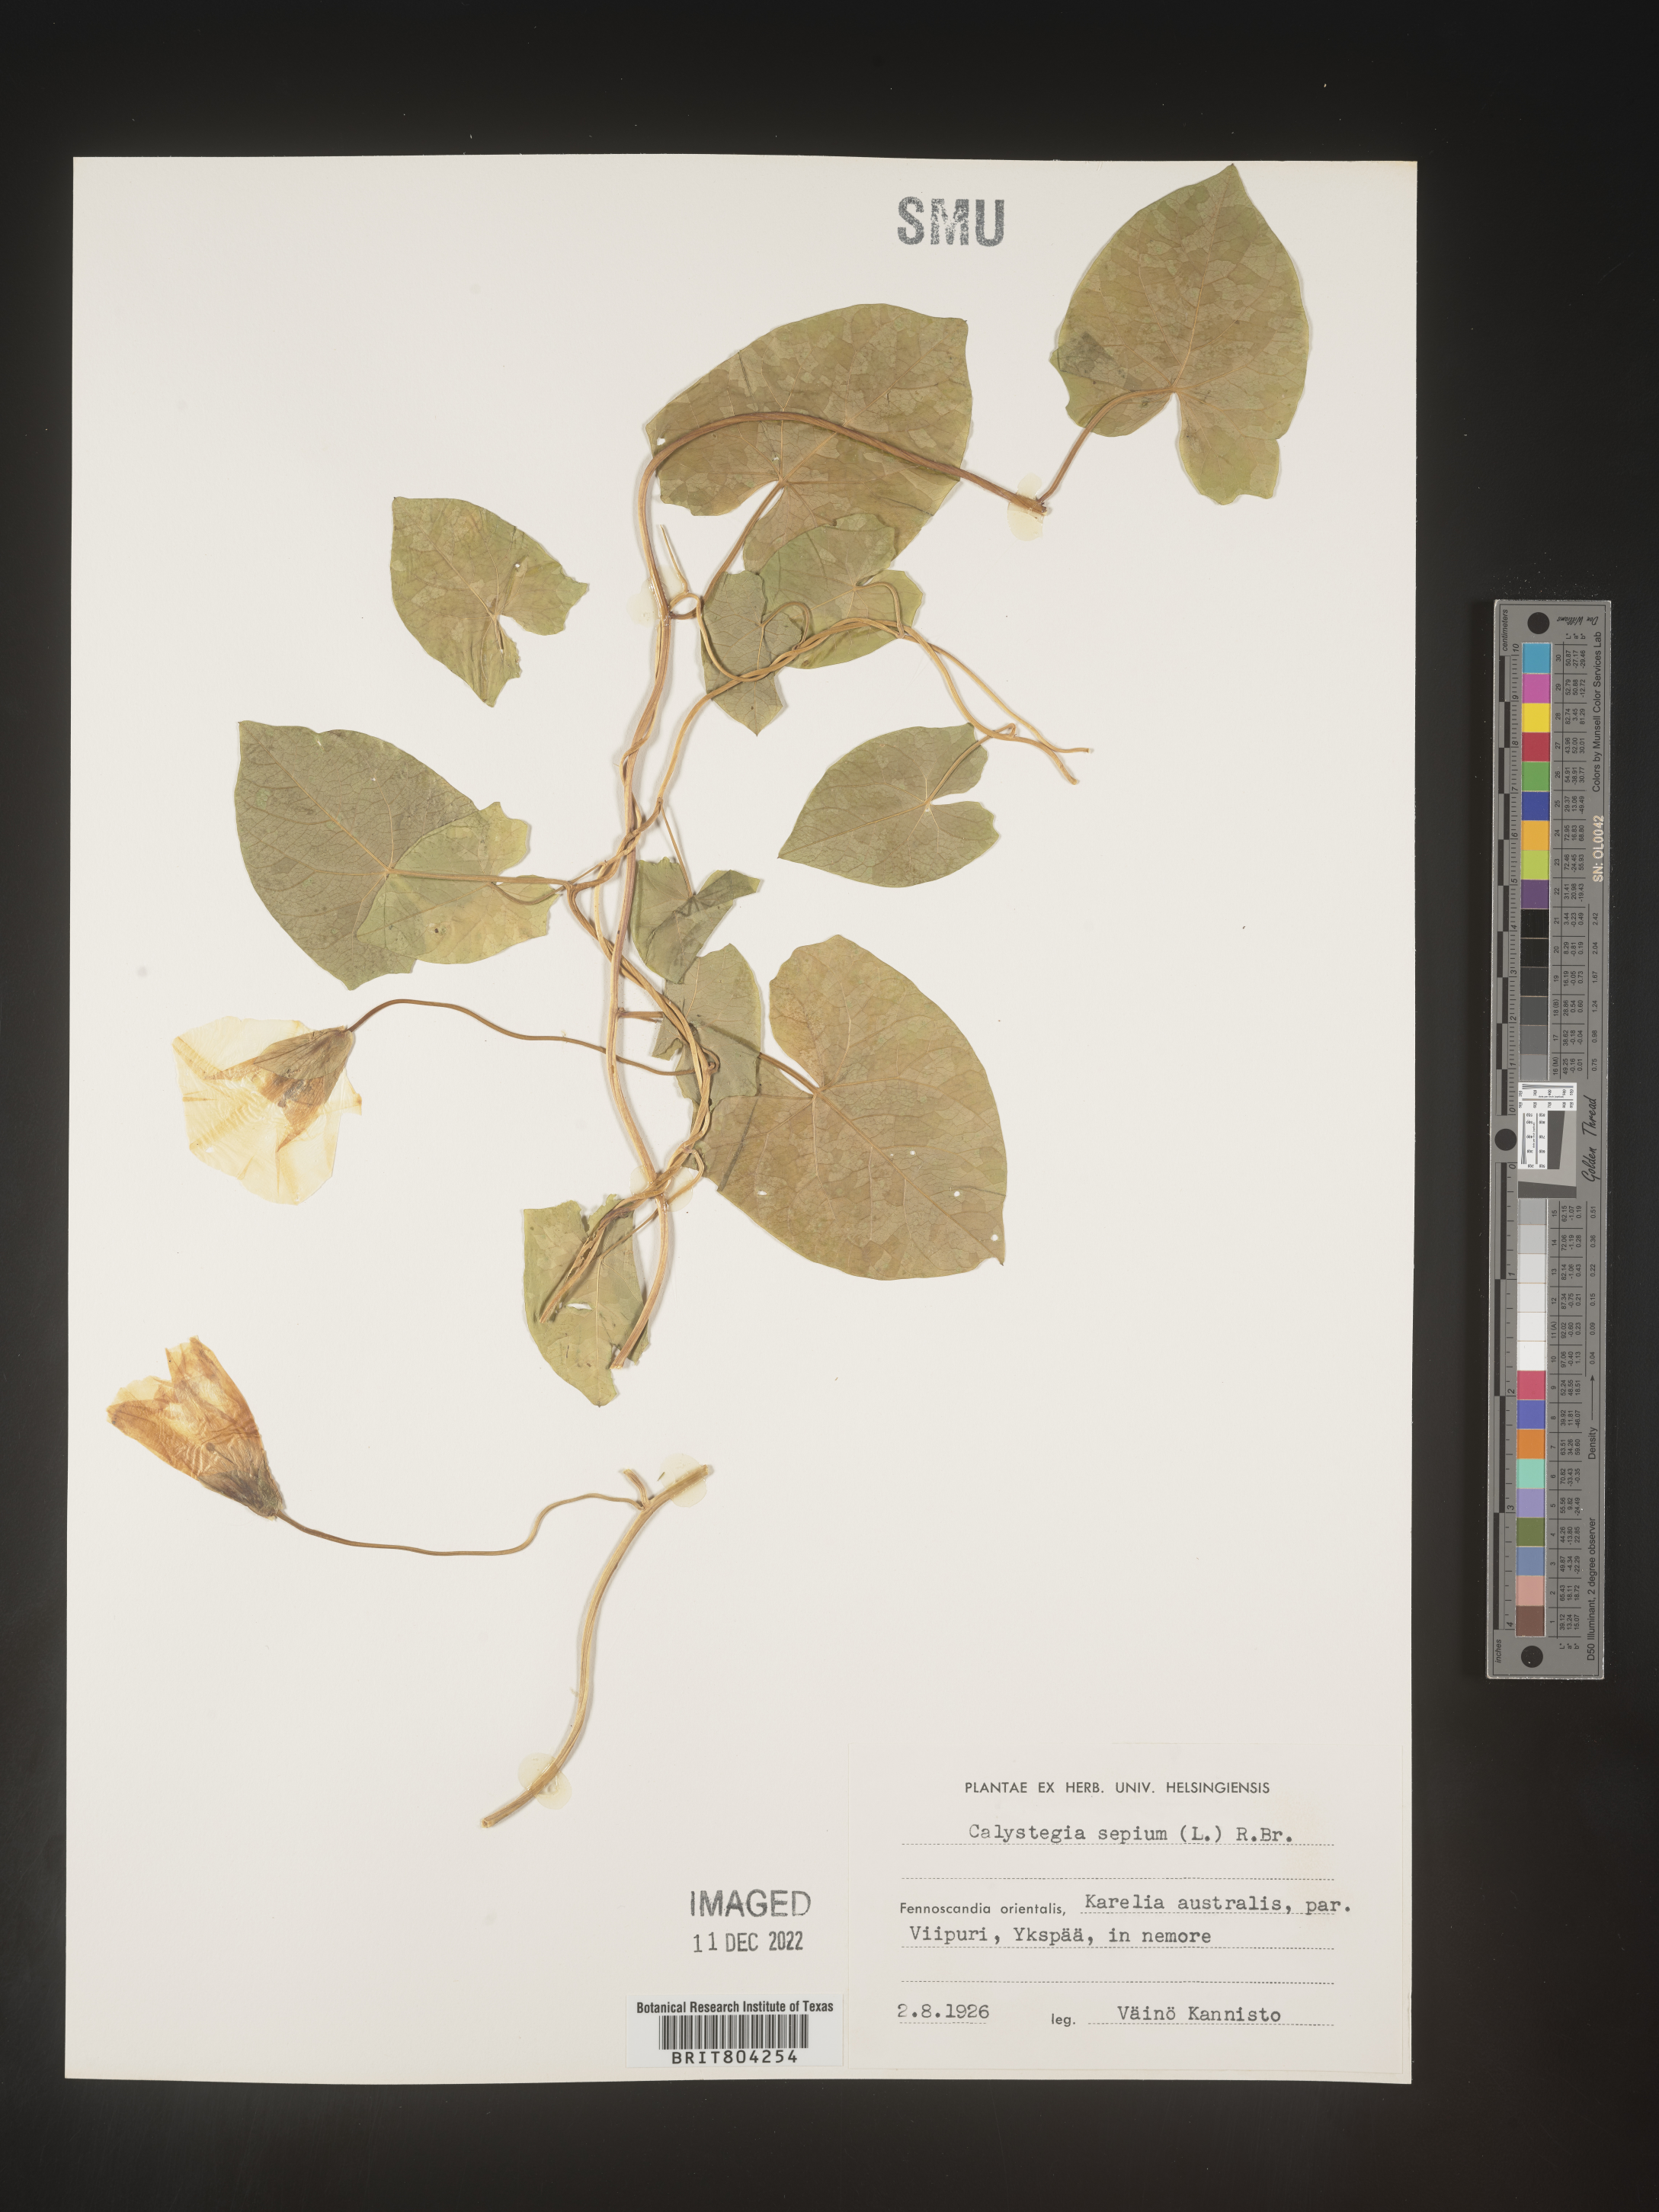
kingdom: Plantae
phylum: Tracheophyta
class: Magnoliopsida
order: Solanales
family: Convolvulaceae
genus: Calystegia
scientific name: Calystegia
